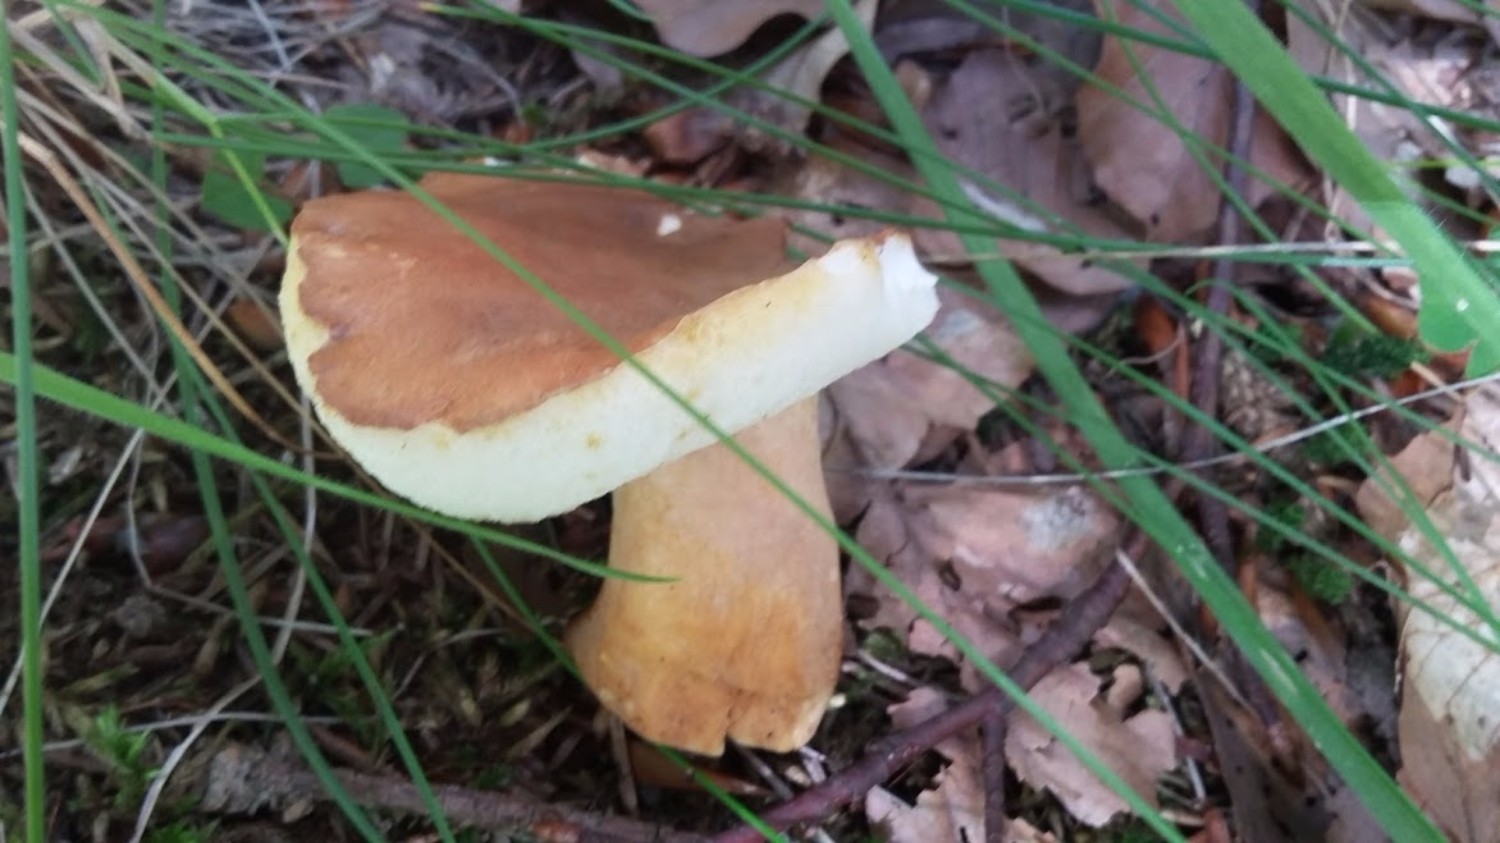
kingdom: Fungi
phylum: Basidiomycota
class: Agaricomycetes
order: Boletales
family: Gyroporaceae
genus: Gyroporus
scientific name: Gyroporus castaneus
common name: kastanie-kammerrørhat
